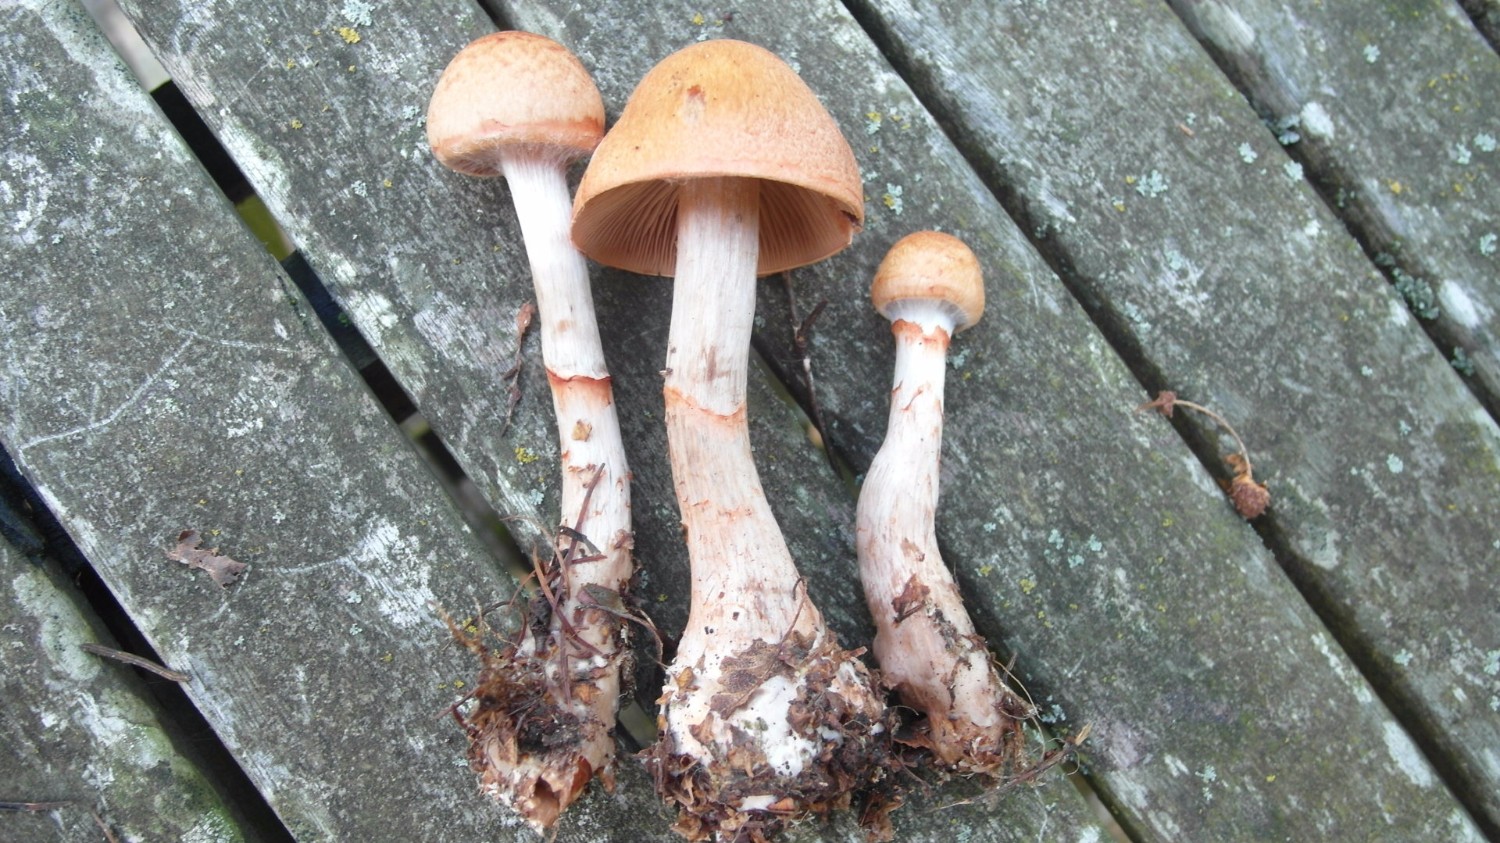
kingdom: Fungi
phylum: Basidiomycota
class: Agaricomycetes
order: Agaricales
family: Cortinariaceae
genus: Cortinarius
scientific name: Cortinarius armillatus
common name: cinnoberbæltet slørhat
